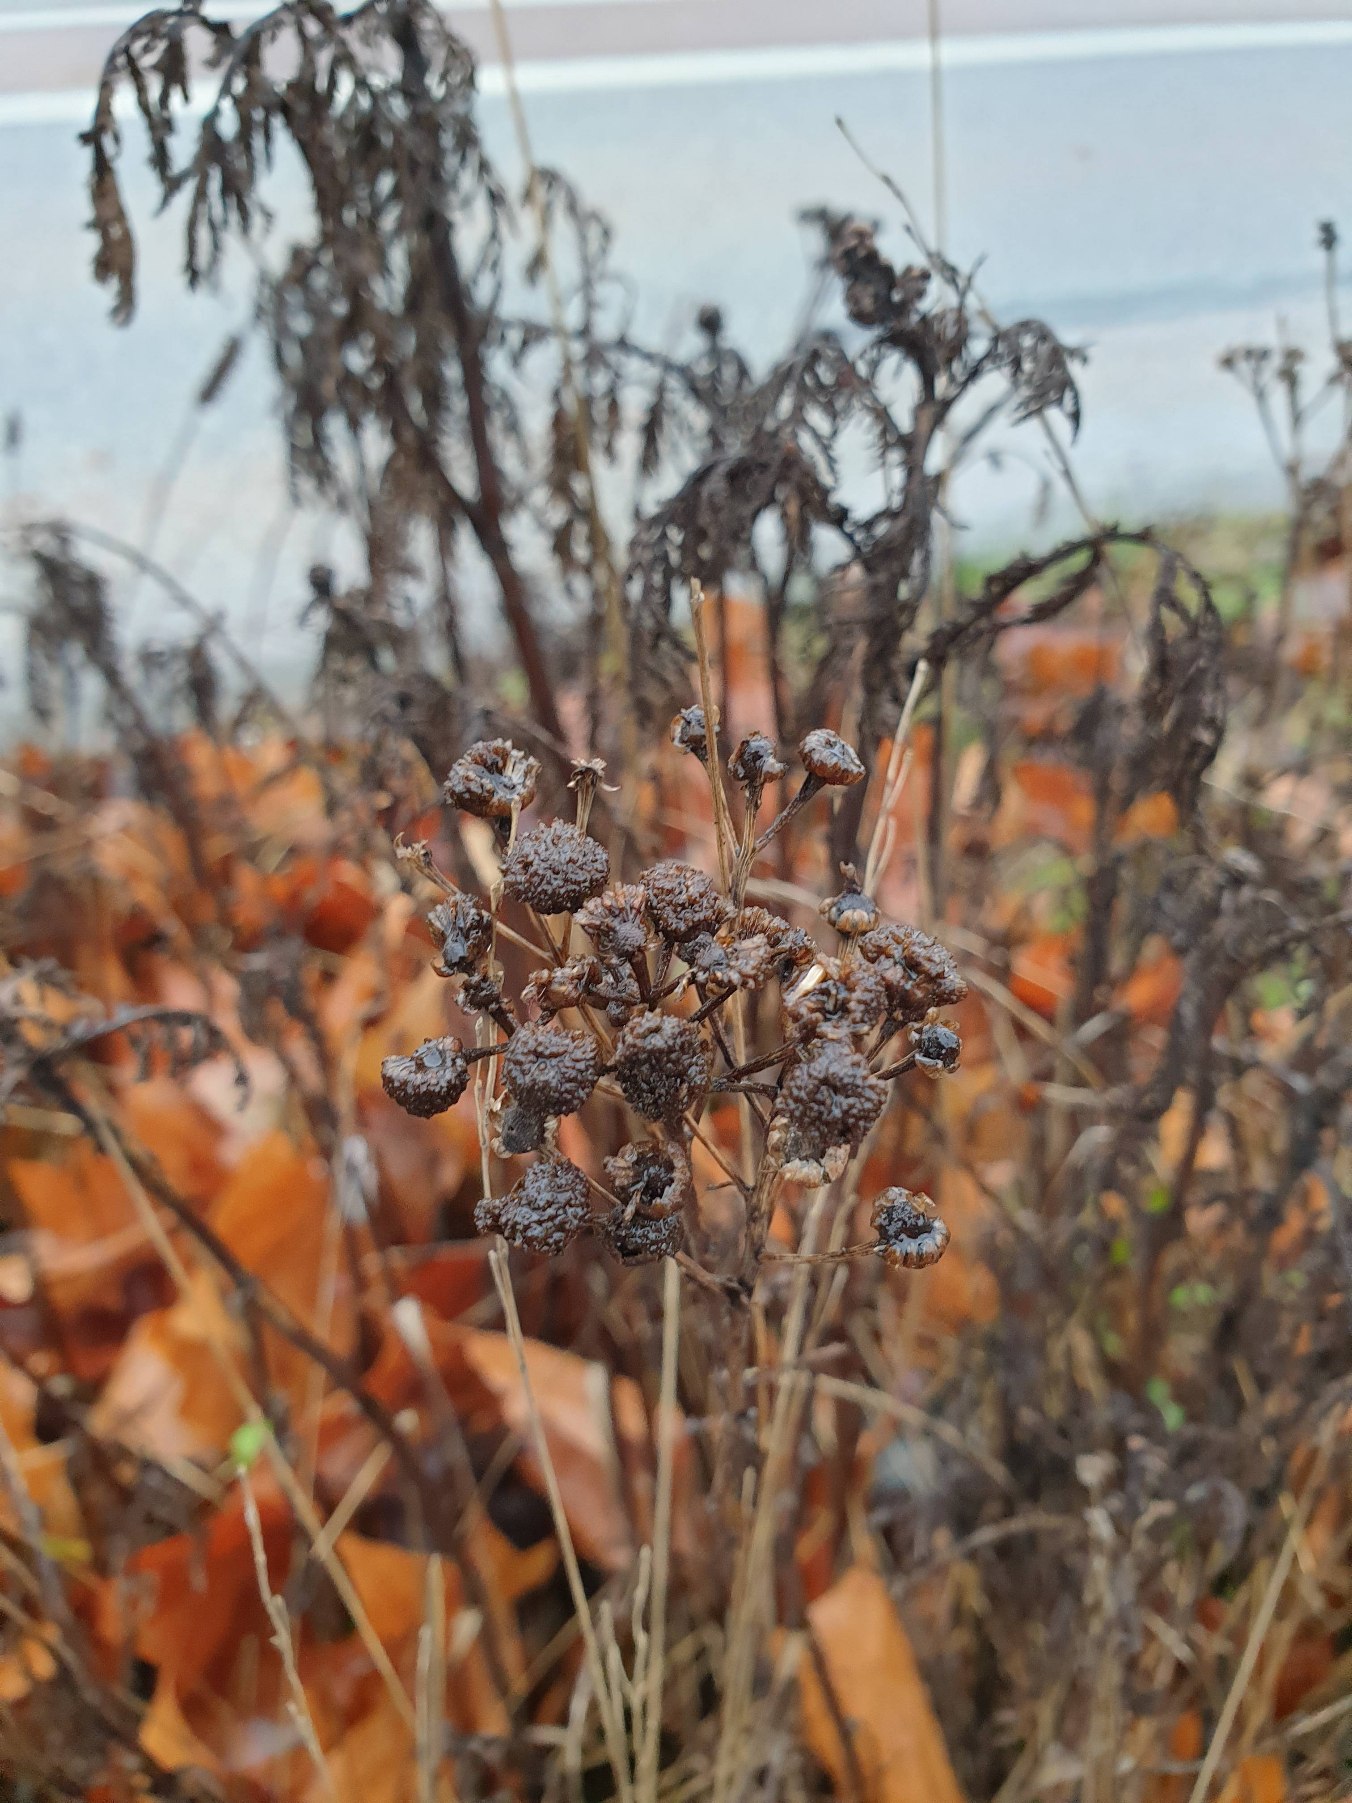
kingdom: Plantae
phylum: Tracheophyta
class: Magnoliopsida
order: Asterales
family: Asteraceae
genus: Tanacetum
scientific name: Tanacetum vulgare
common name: Rejnfan
